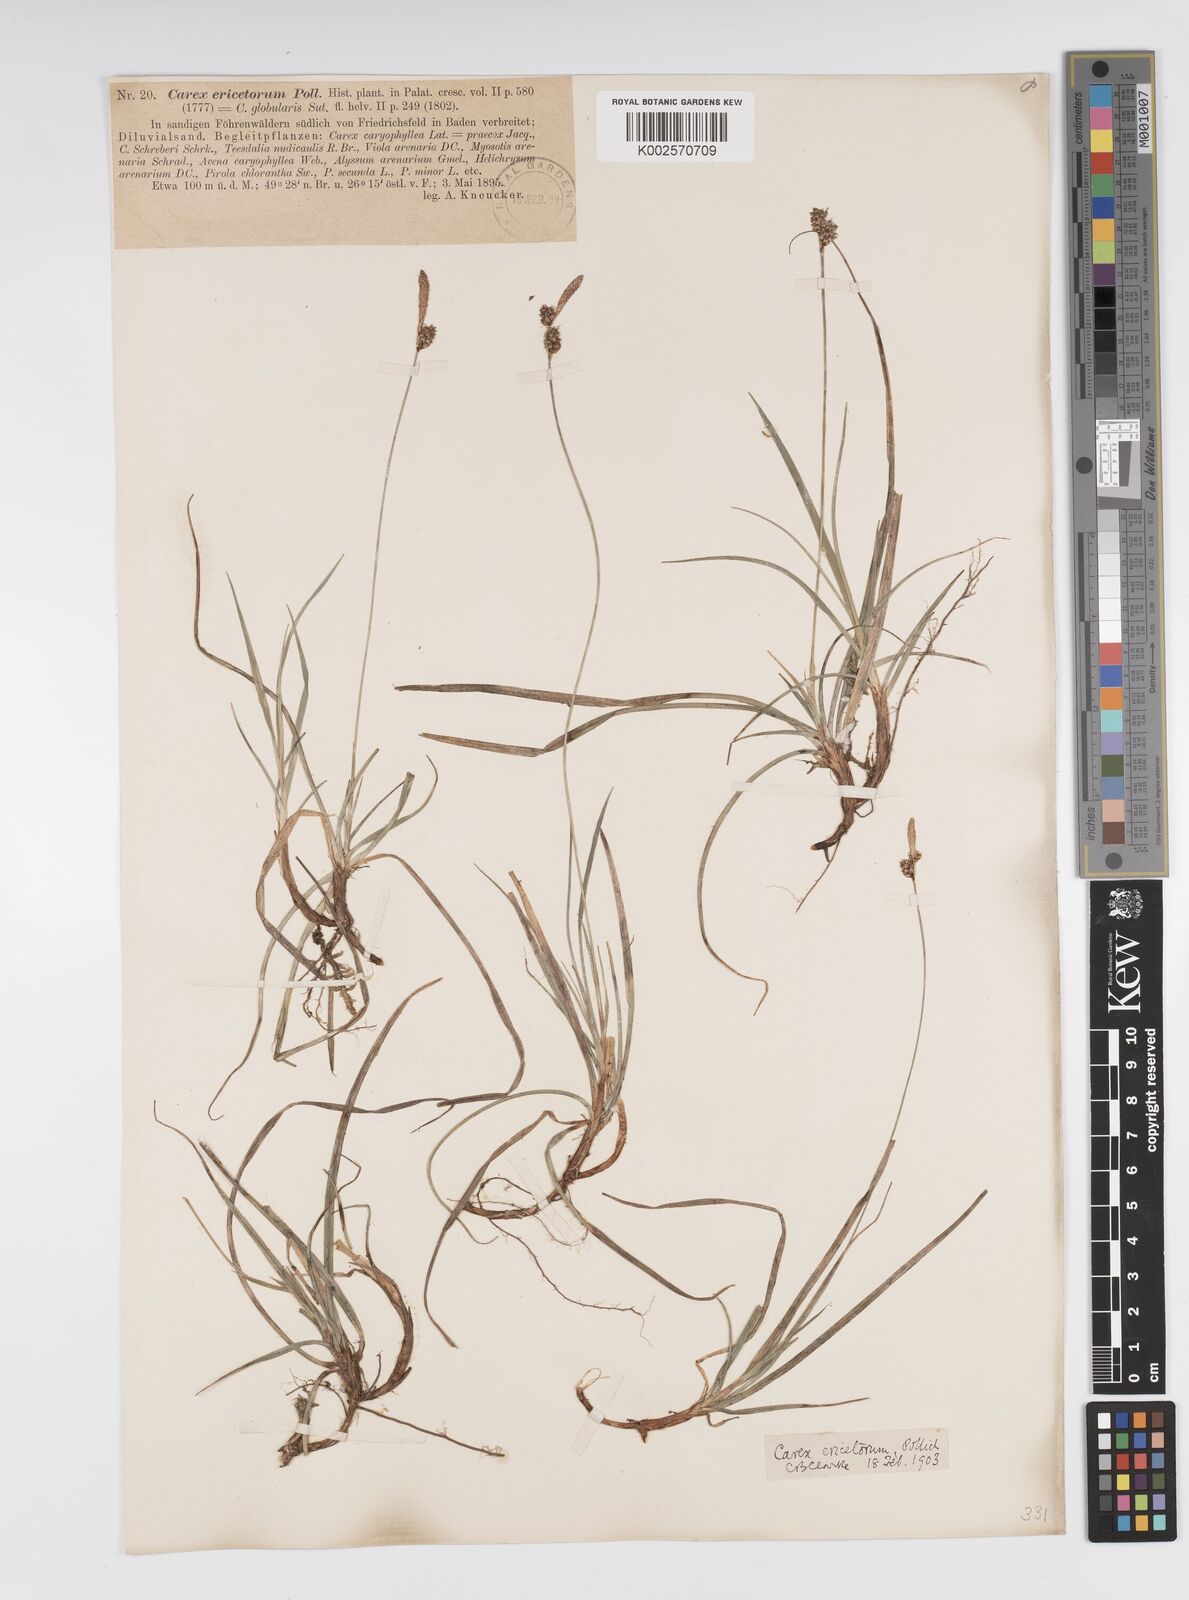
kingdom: Plantae
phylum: Tracheophyta
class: Liliopsida
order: Poales
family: Cyperaceae
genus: Carex
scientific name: Carex ericetorum
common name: Rare spring-sedge
